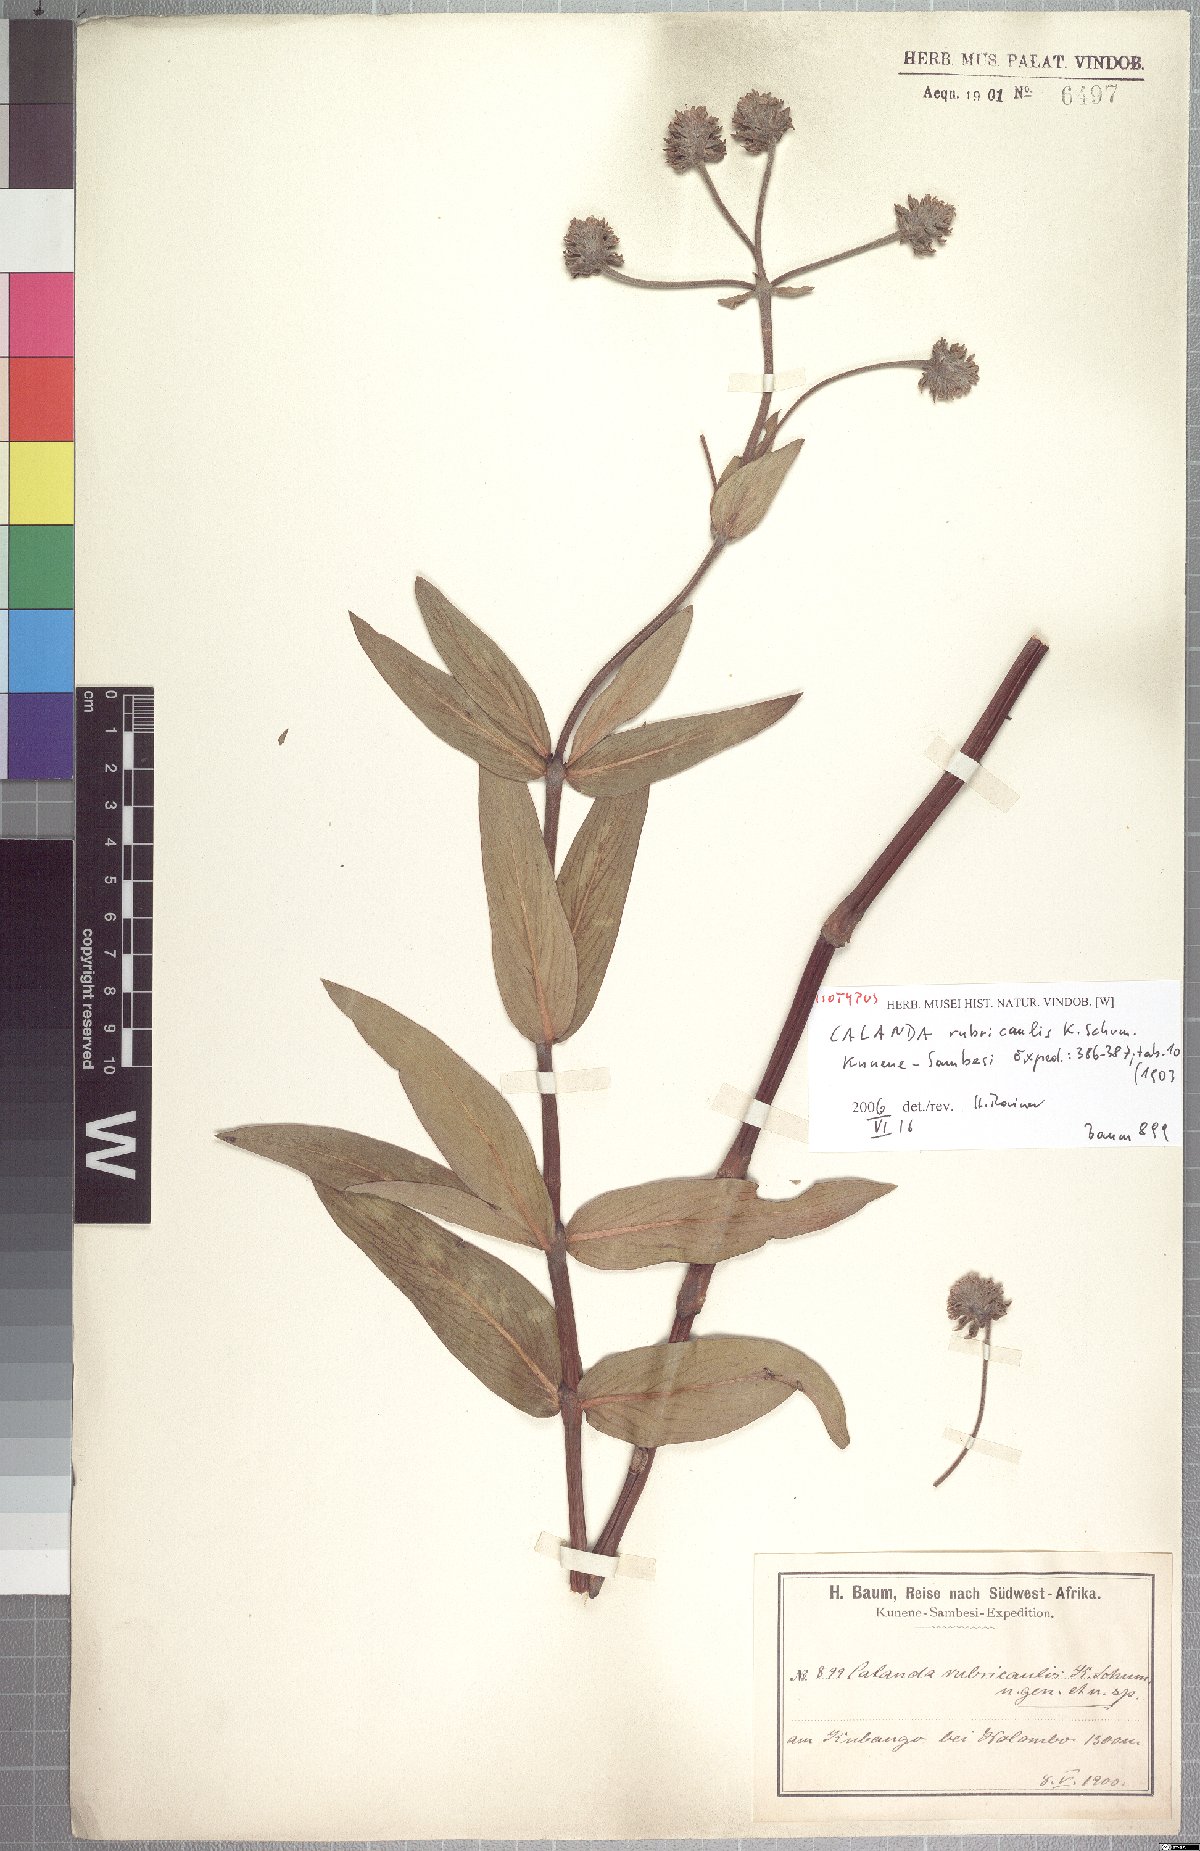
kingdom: Plantae
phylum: Tracheophyta
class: Magnoliopsida
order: Gentianales
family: Rubiaceae
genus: Pentanisia
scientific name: Pentanisia rubricaulis
